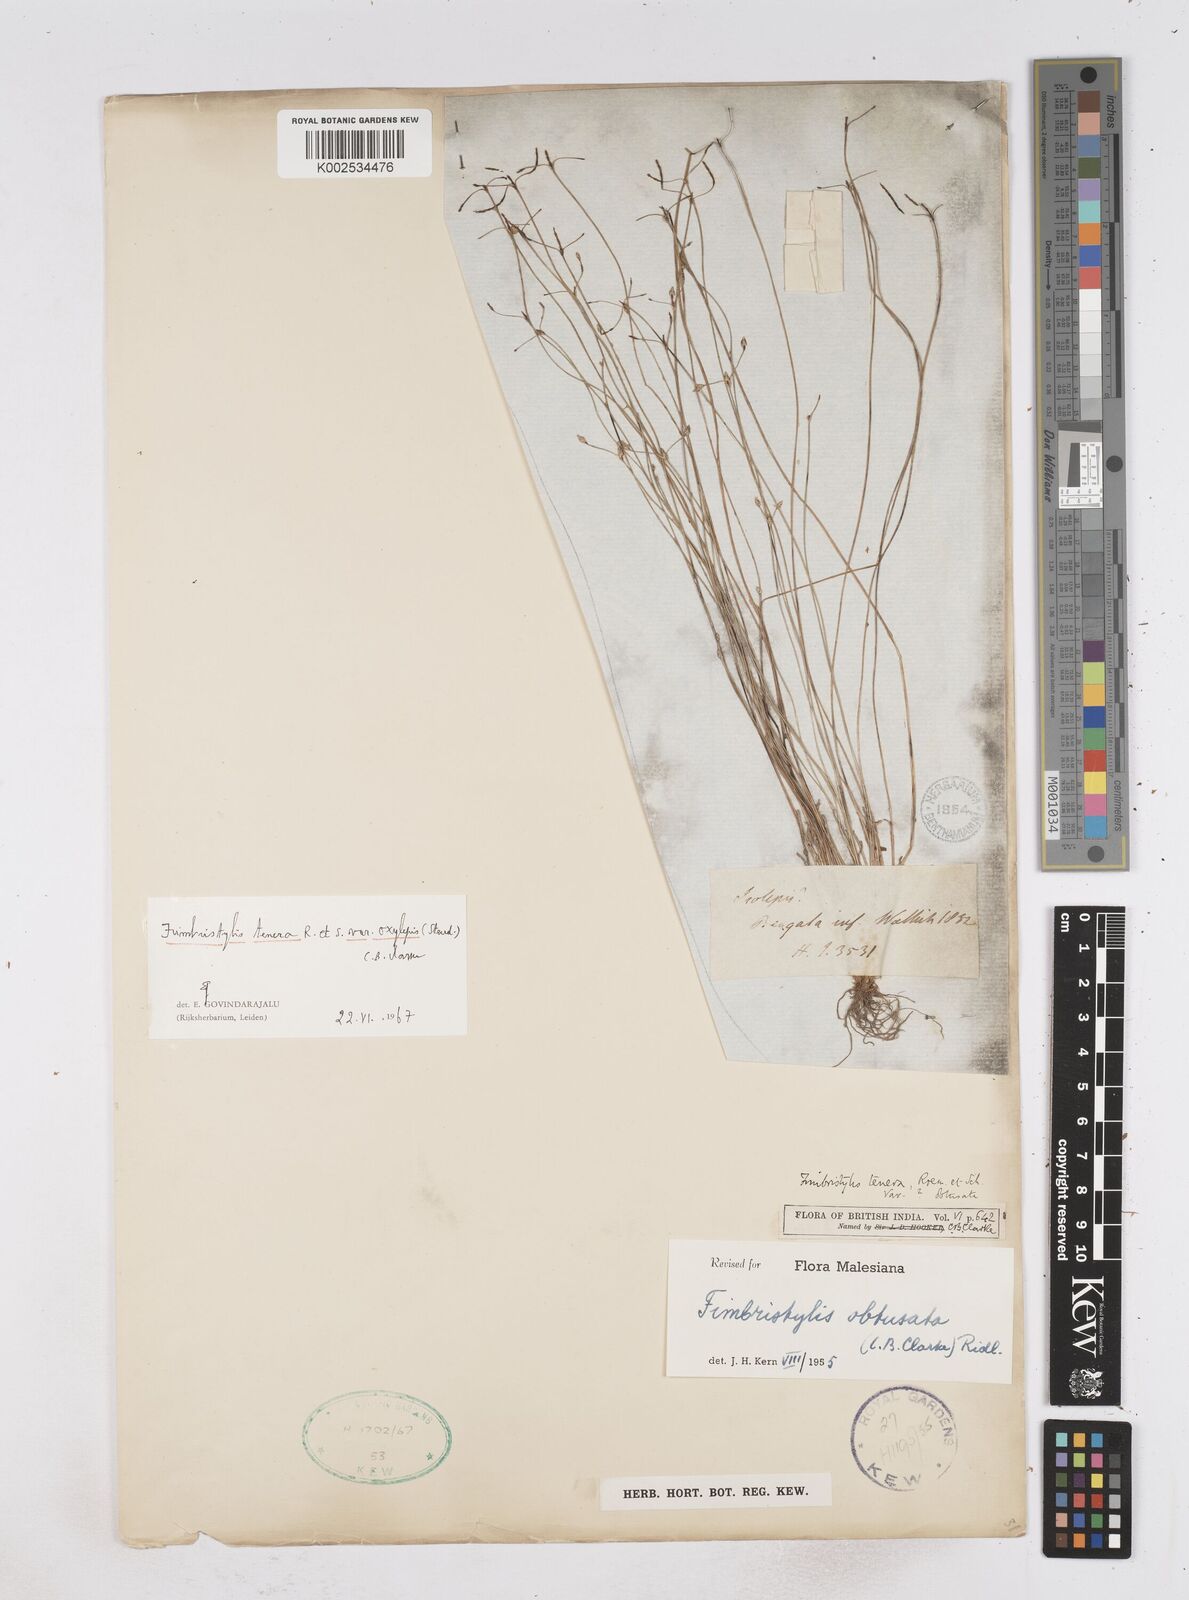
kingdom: Plantae
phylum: Tracheophyta
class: Liliopsida
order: Poales
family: Cyperaceae
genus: Fimbristylis
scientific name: Fimbristylis tenera
